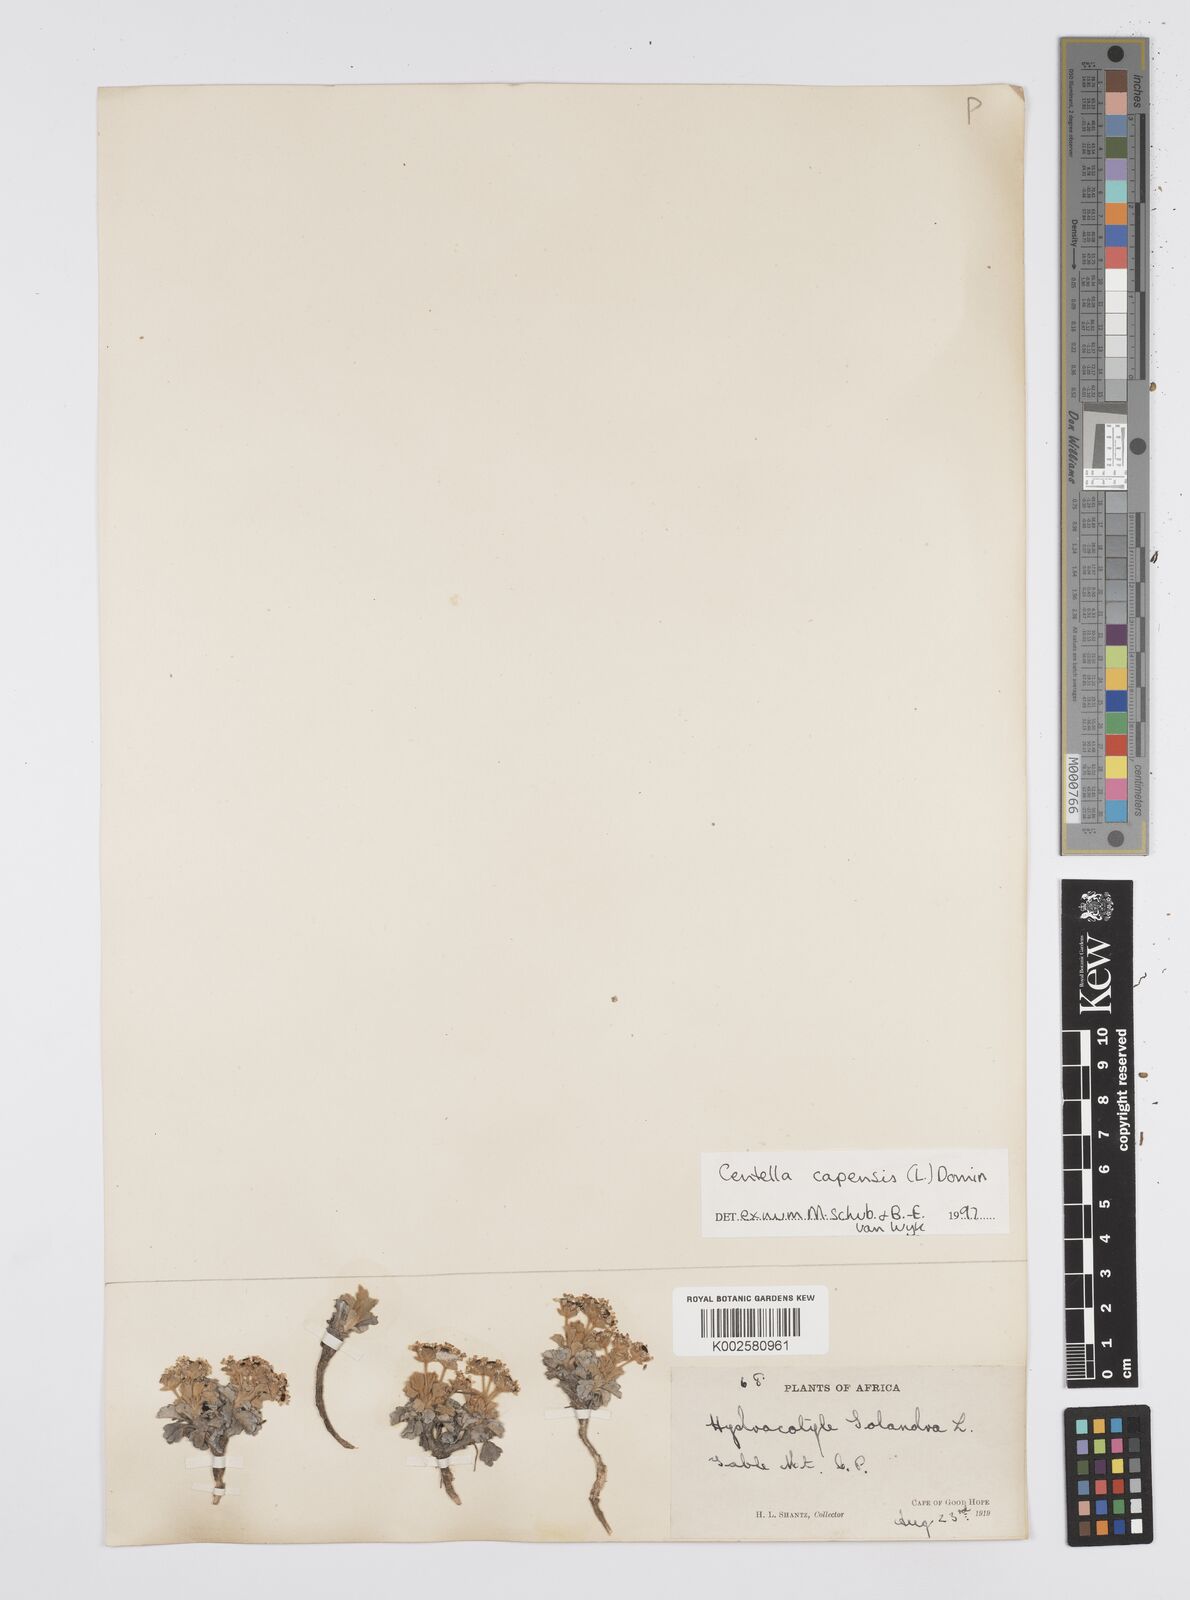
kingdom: Plantae
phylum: Tracheophyta
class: Magnoliopsida
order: Apiales
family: Apiaceae
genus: Centella
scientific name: Centella capensis
